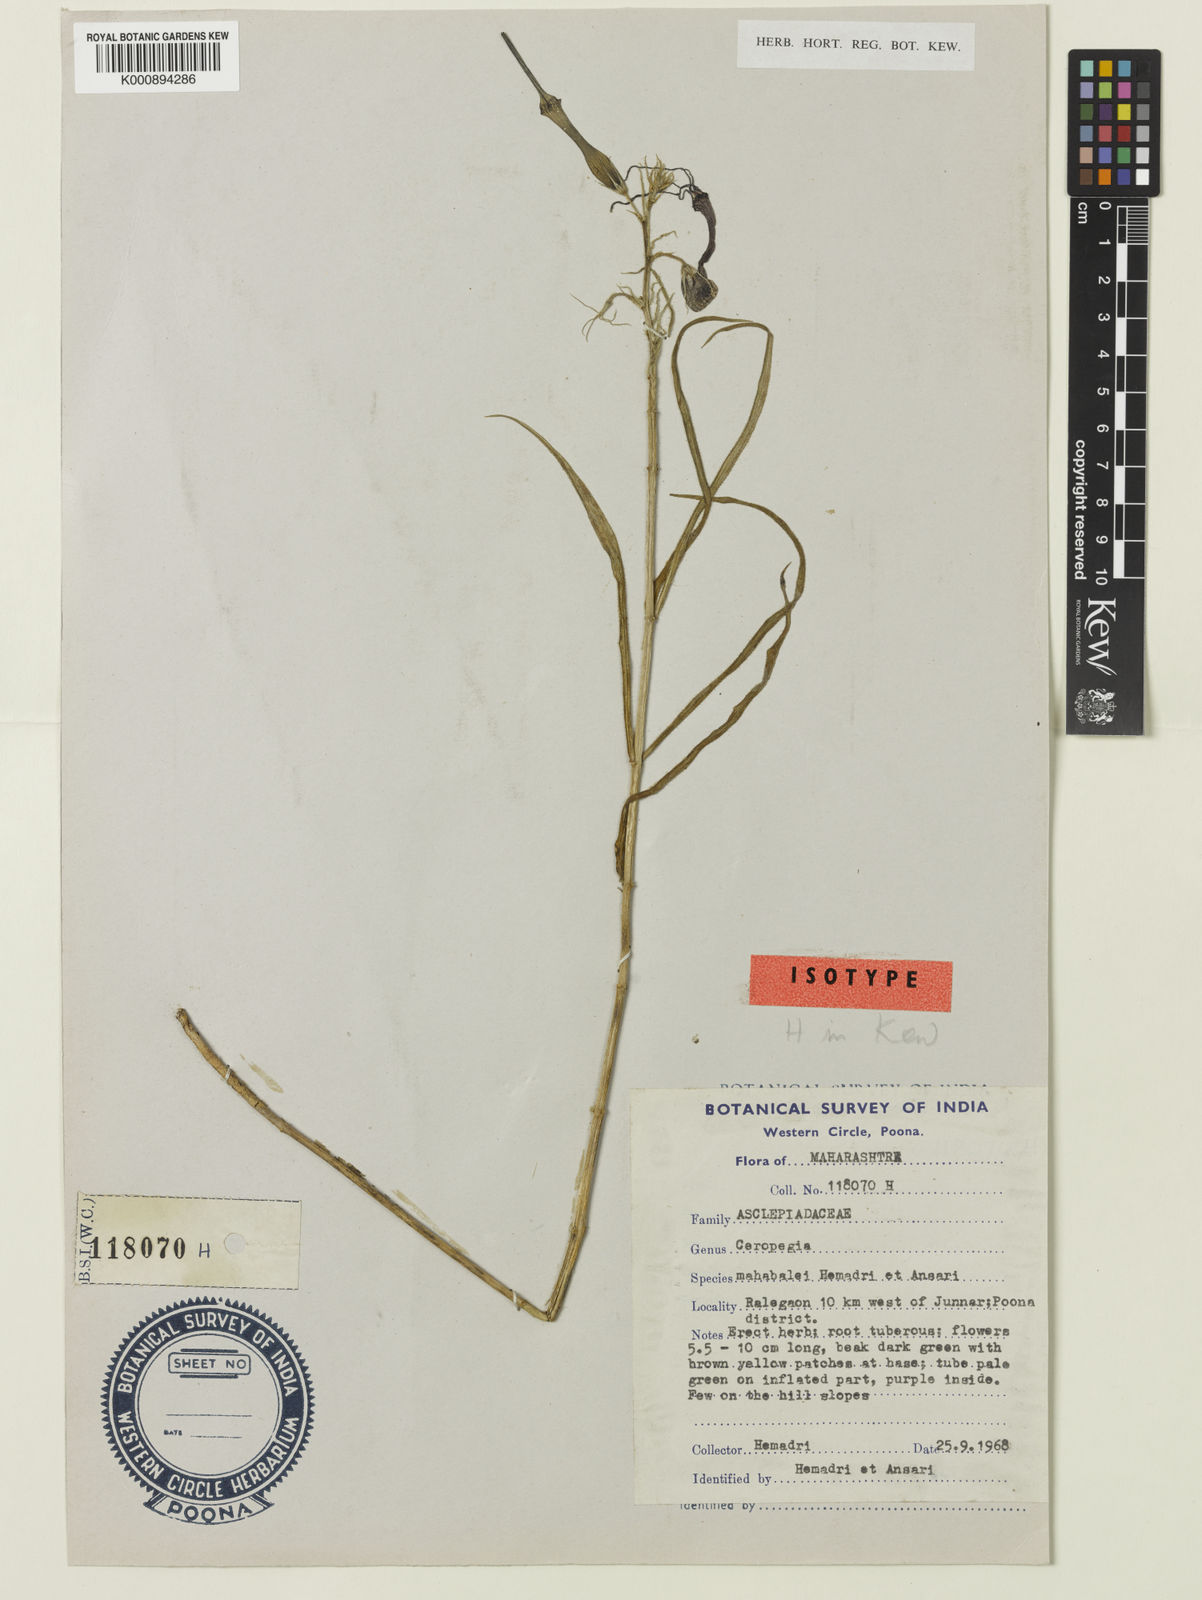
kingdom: Plantae
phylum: Tracheophyta
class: Magnoliopsida
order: Gentianales
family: Apocynaceae
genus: Ceropegia
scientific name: Ceropegia mahabalei
